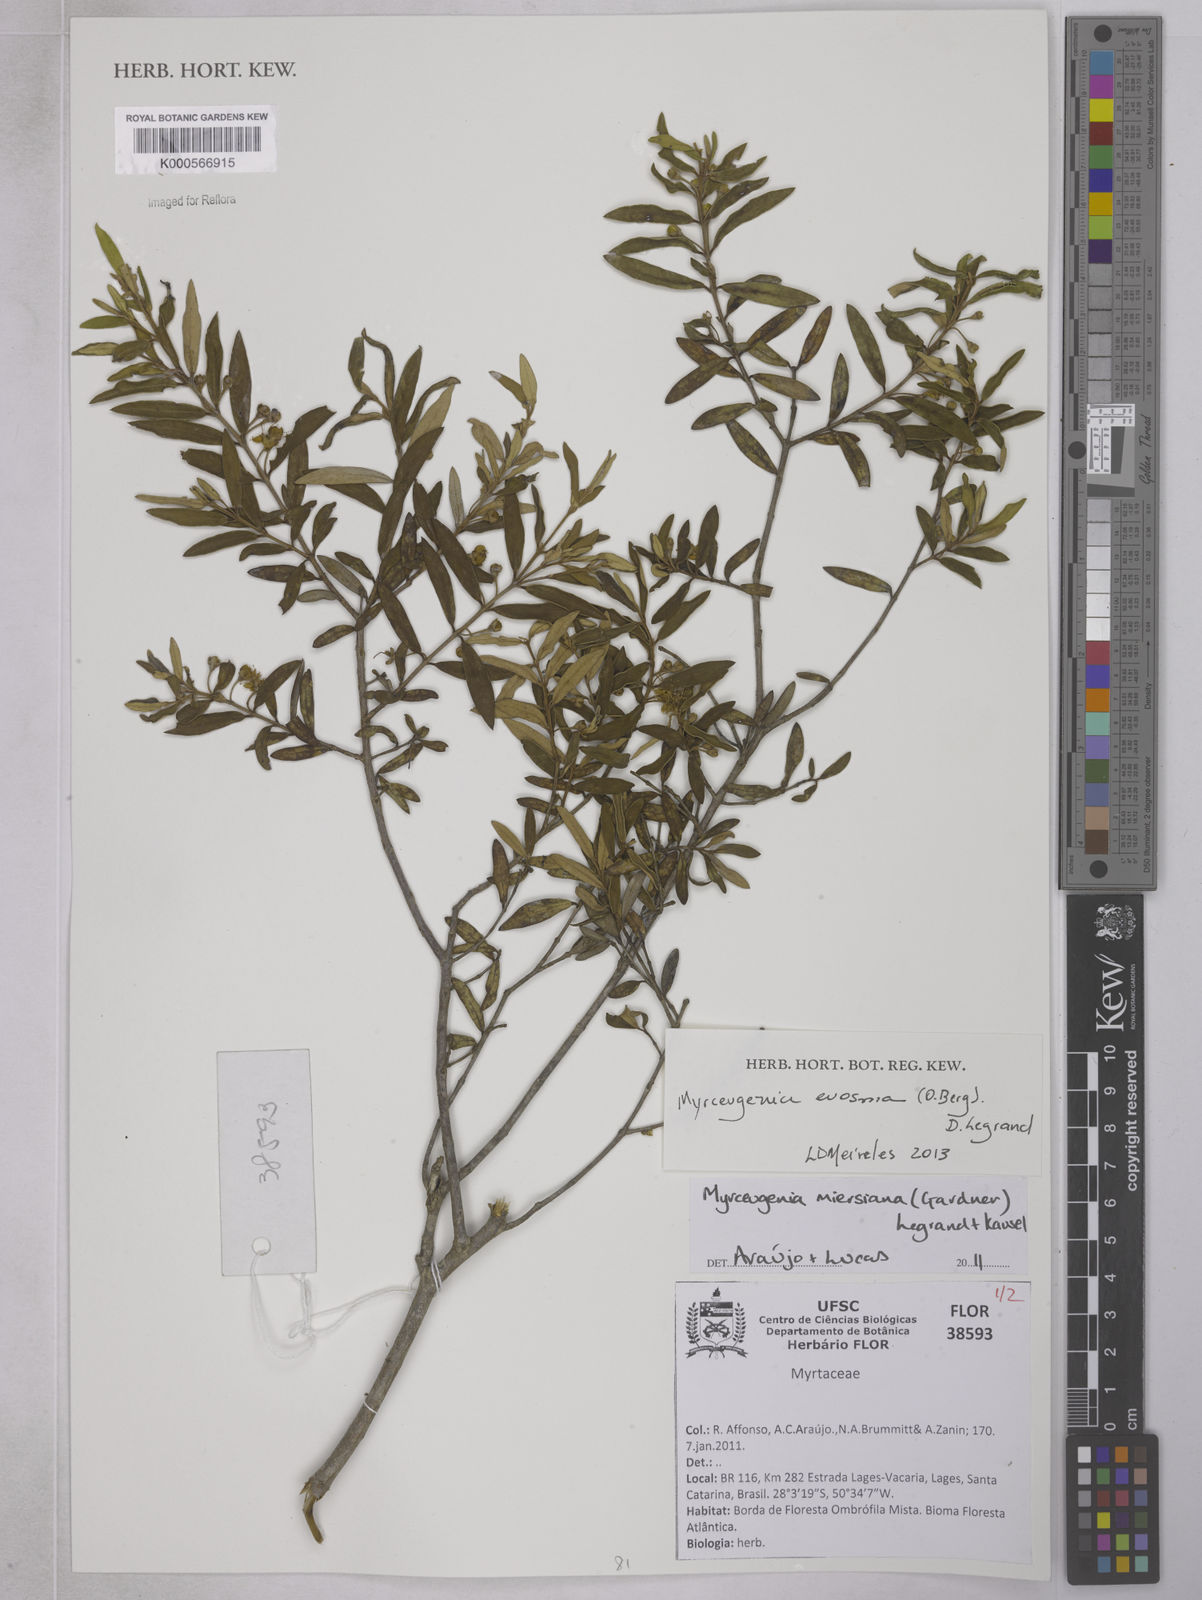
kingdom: Plantae
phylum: Tracheophyta
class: Magnoliopsida
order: Myrtales
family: Myrtaceae
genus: Myrceugenia
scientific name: Myrceugenia miersiana
